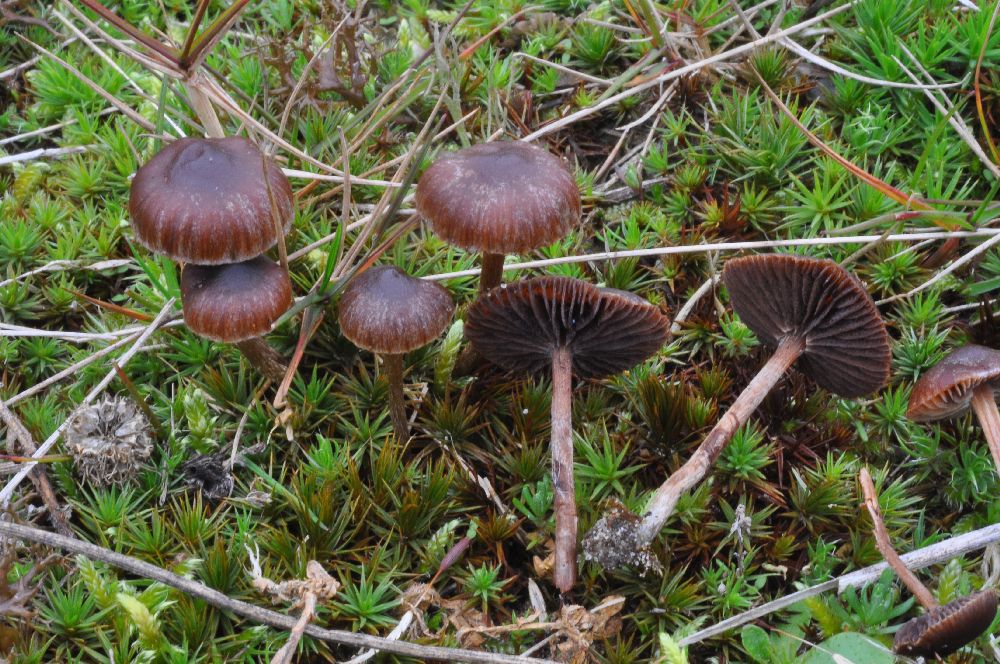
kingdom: Fungi
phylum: Basidiomycota
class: Agaricomycetes
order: Agaricales
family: Strophariaceae
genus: Deconica
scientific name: Deconica montana
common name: rødbrun stråhat
